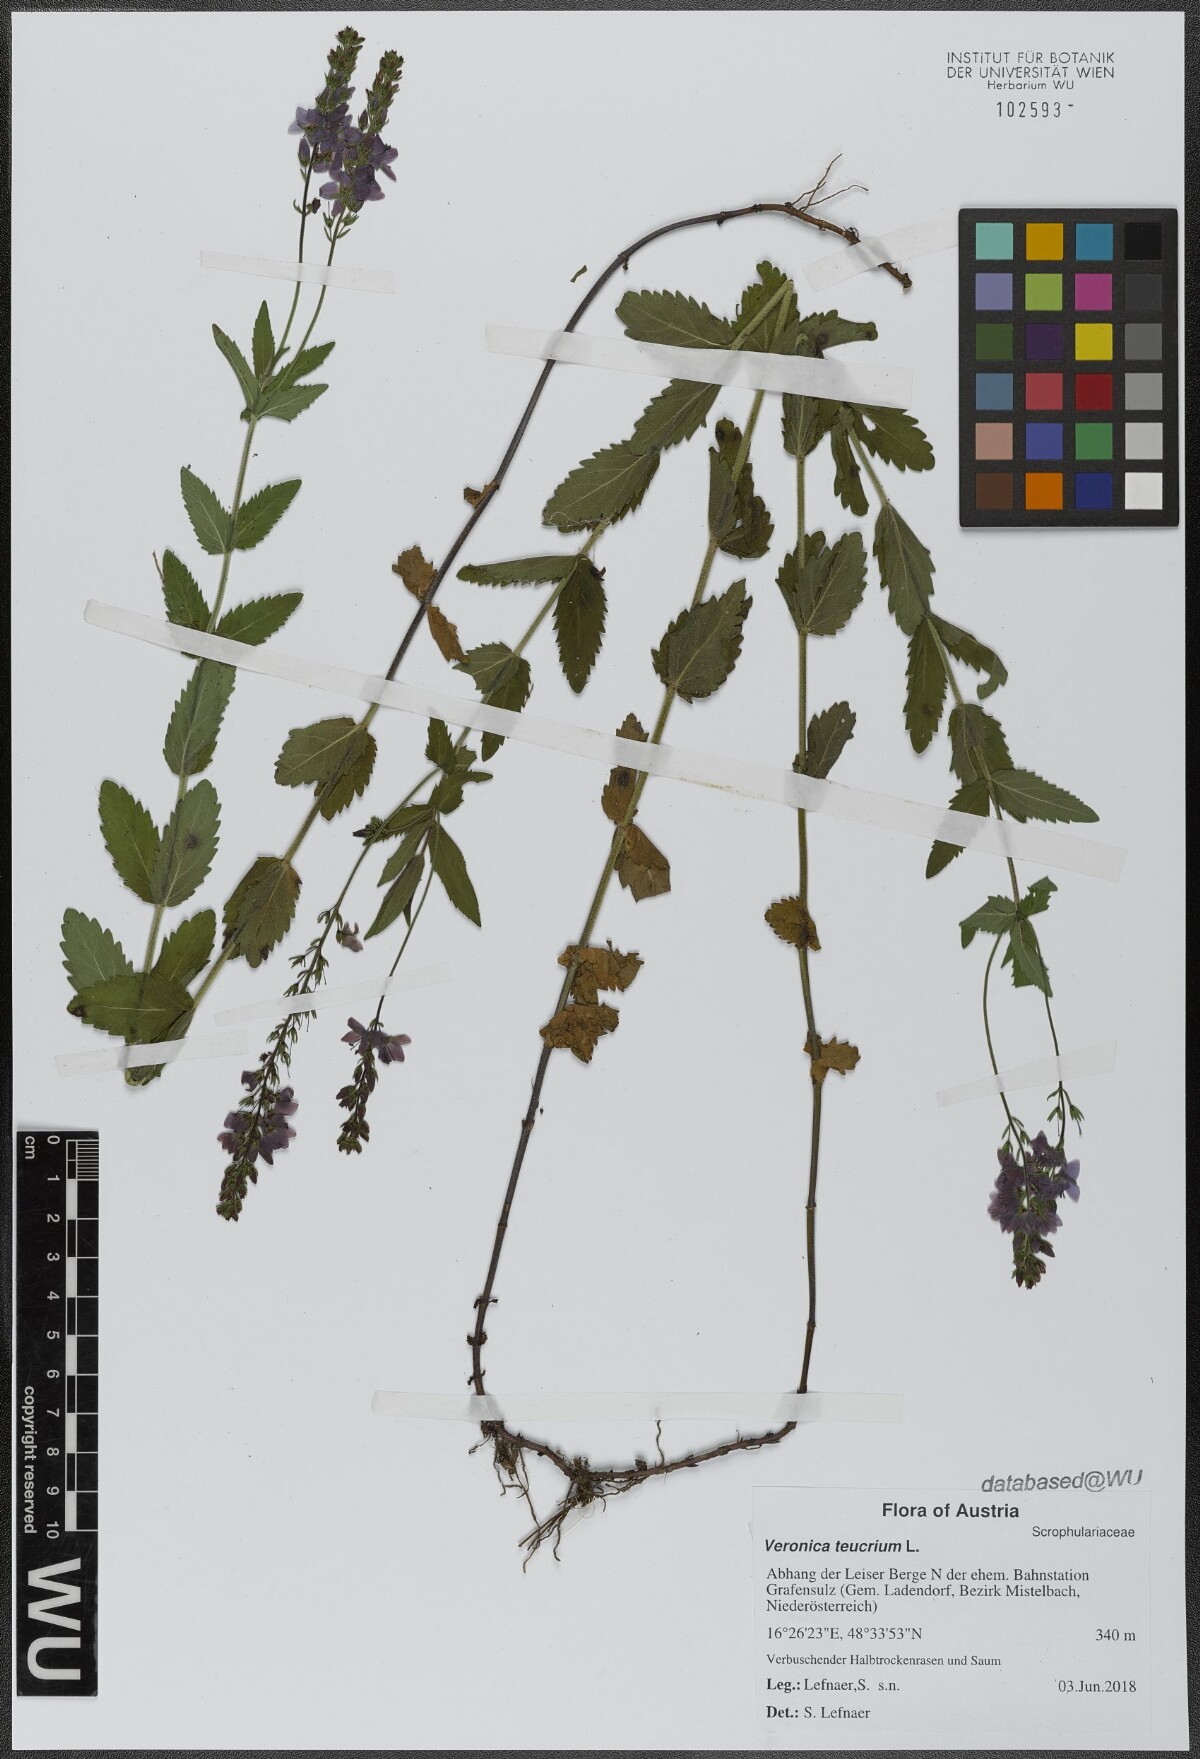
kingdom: Plantae
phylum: Tracheophyta
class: Magnoliopsida
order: Lamiales
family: Plantaginaceae
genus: Veronica
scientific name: Veronica teucrium
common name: Large speedwell
